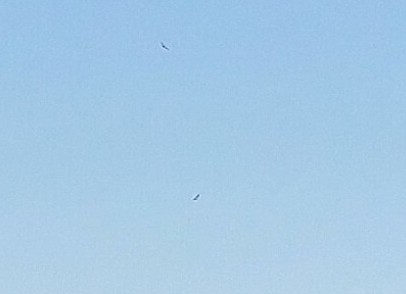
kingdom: Animalia
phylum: Chordata
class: Aves
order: Accipitriformes
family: Accipitridae
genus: Haliaeetus
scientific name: Haliaeetus albicilla
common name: Havørn
